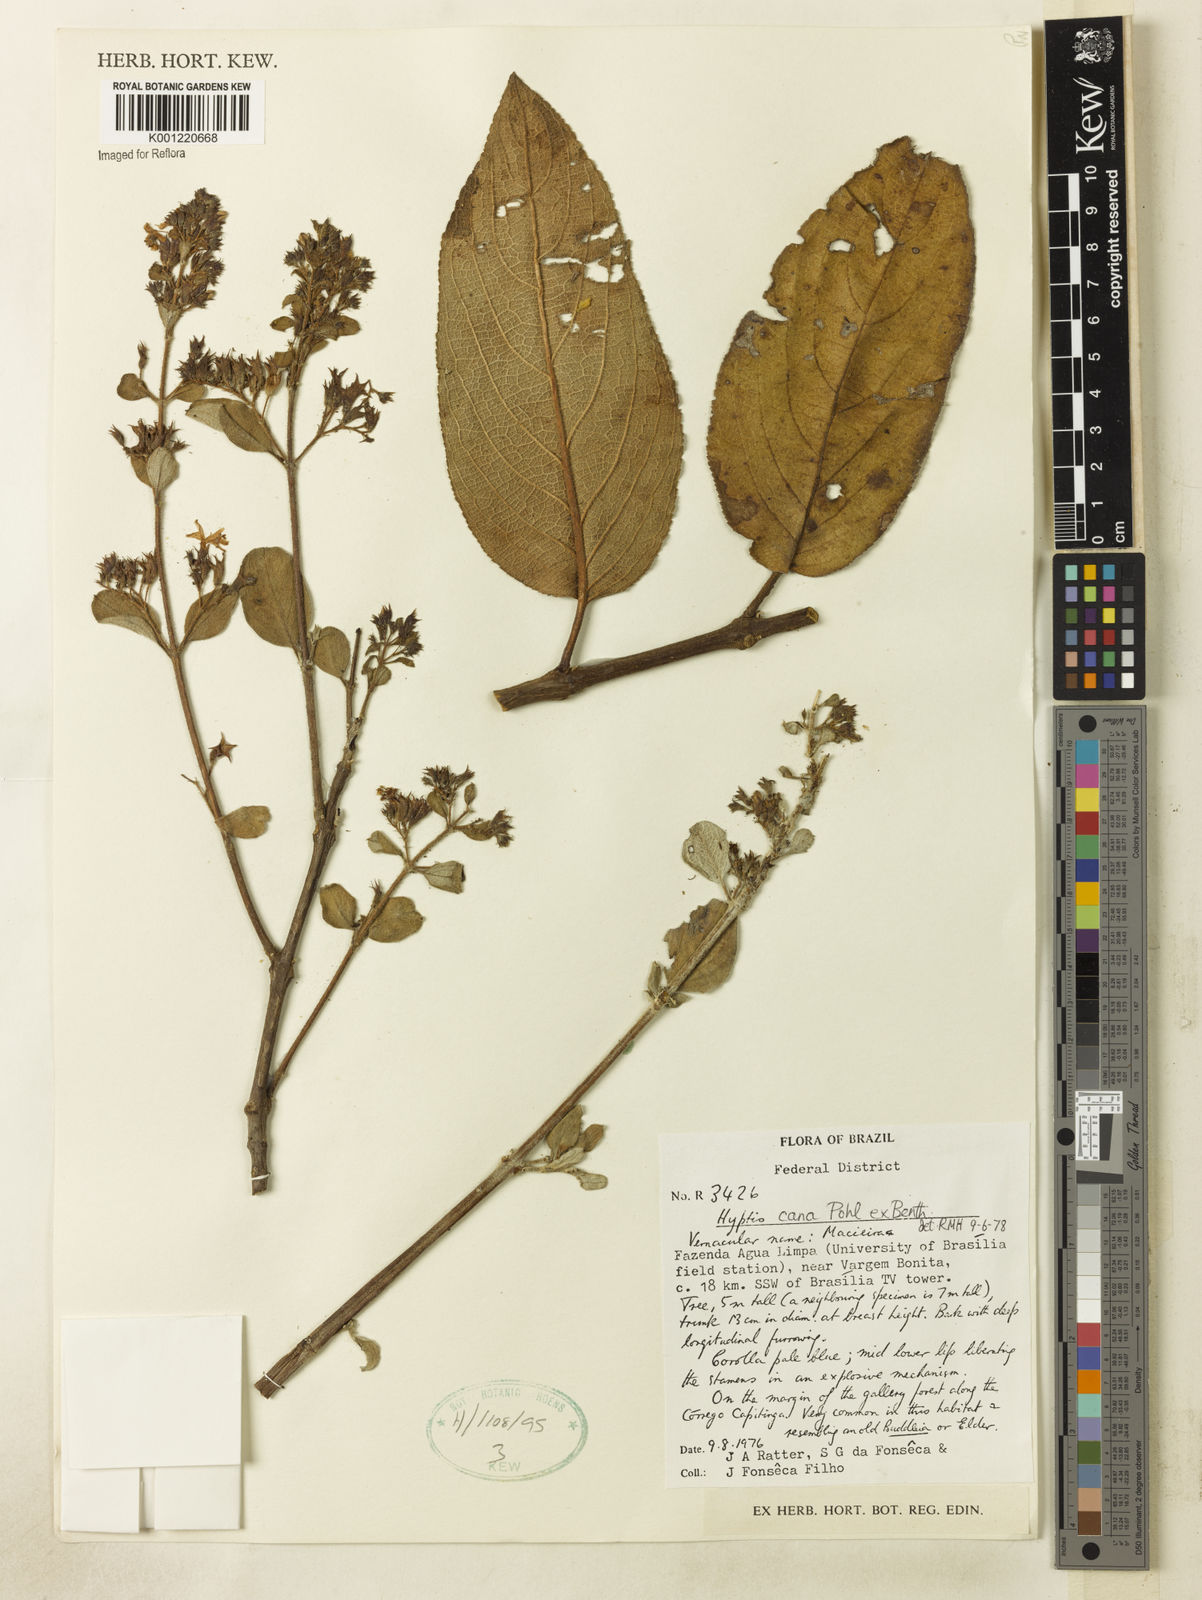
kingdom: Plantae
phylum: Tracheophyta
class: Magnoliopsida
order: Lamiales
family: Lamiaceae
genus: Hyptidendron
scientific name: Hyptidendron canum
